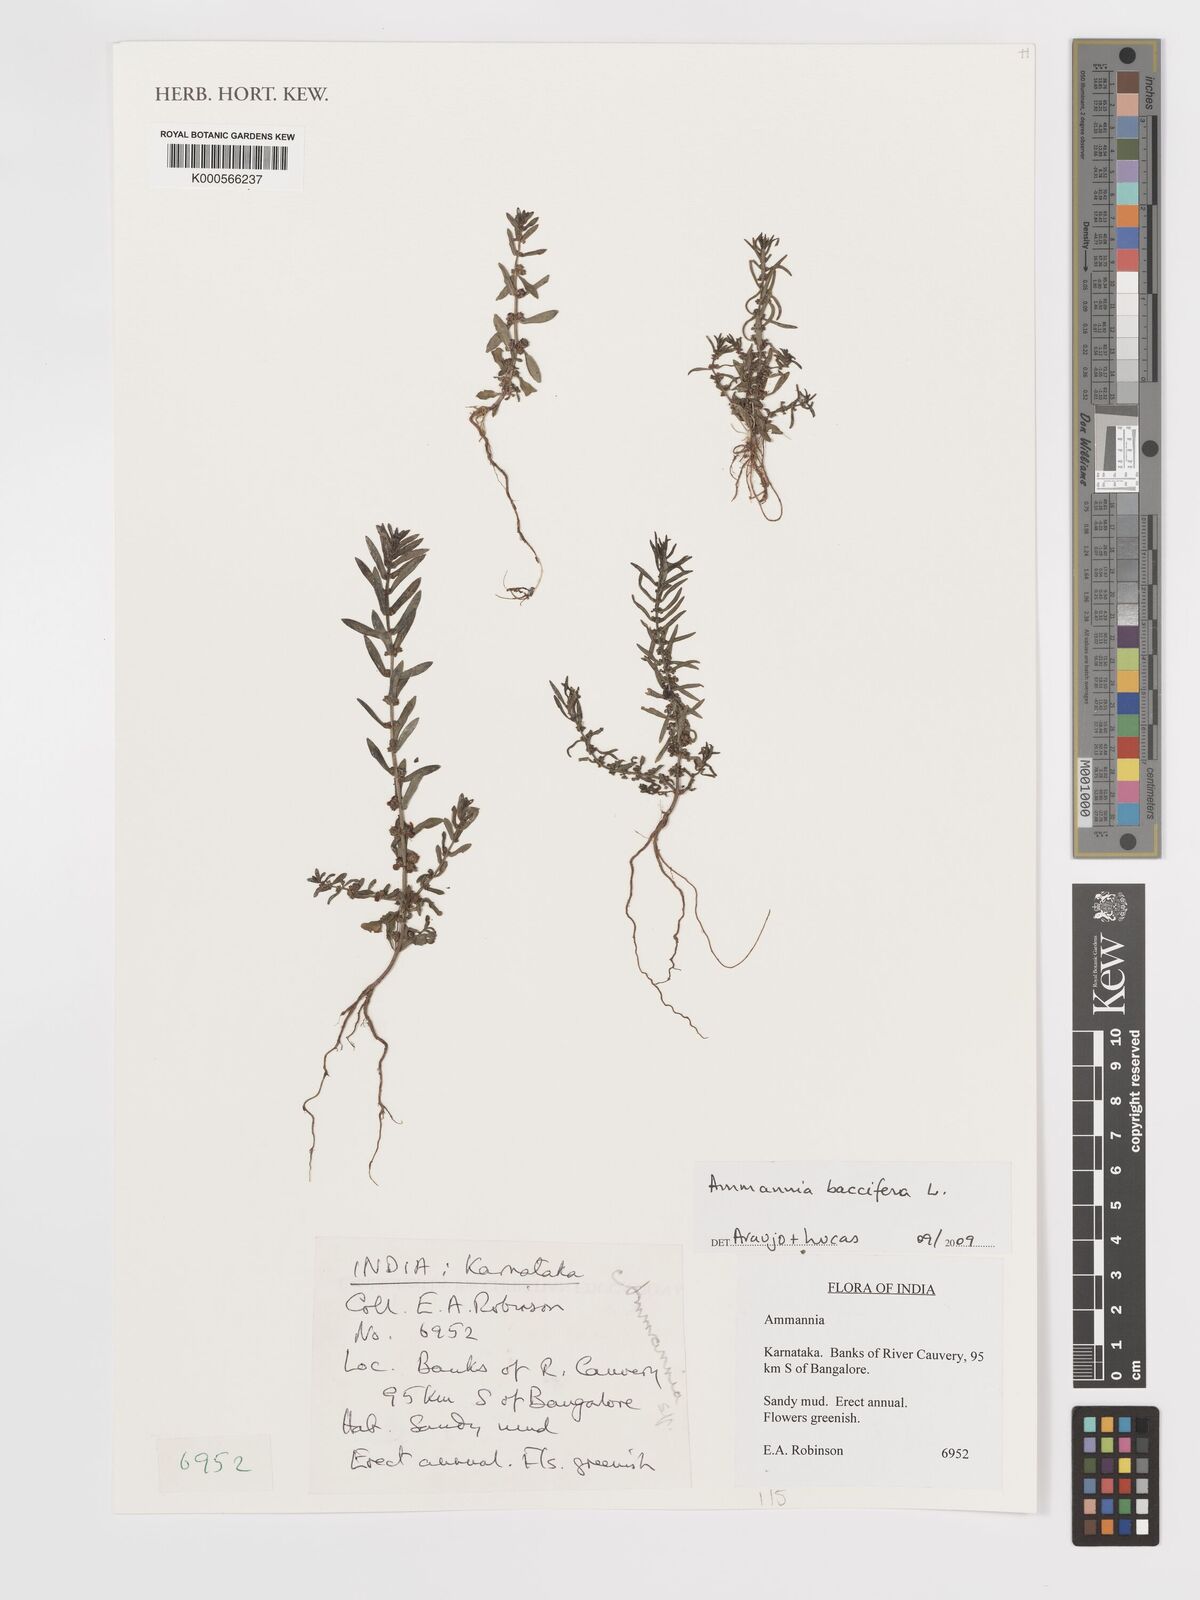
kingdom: Plantae
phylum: Tracheophyta
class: Magnoliopsida
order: Myrtales
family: Lythraceae
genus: Ammannia
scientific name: Ammannia baccifera
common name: Blistering ammania
